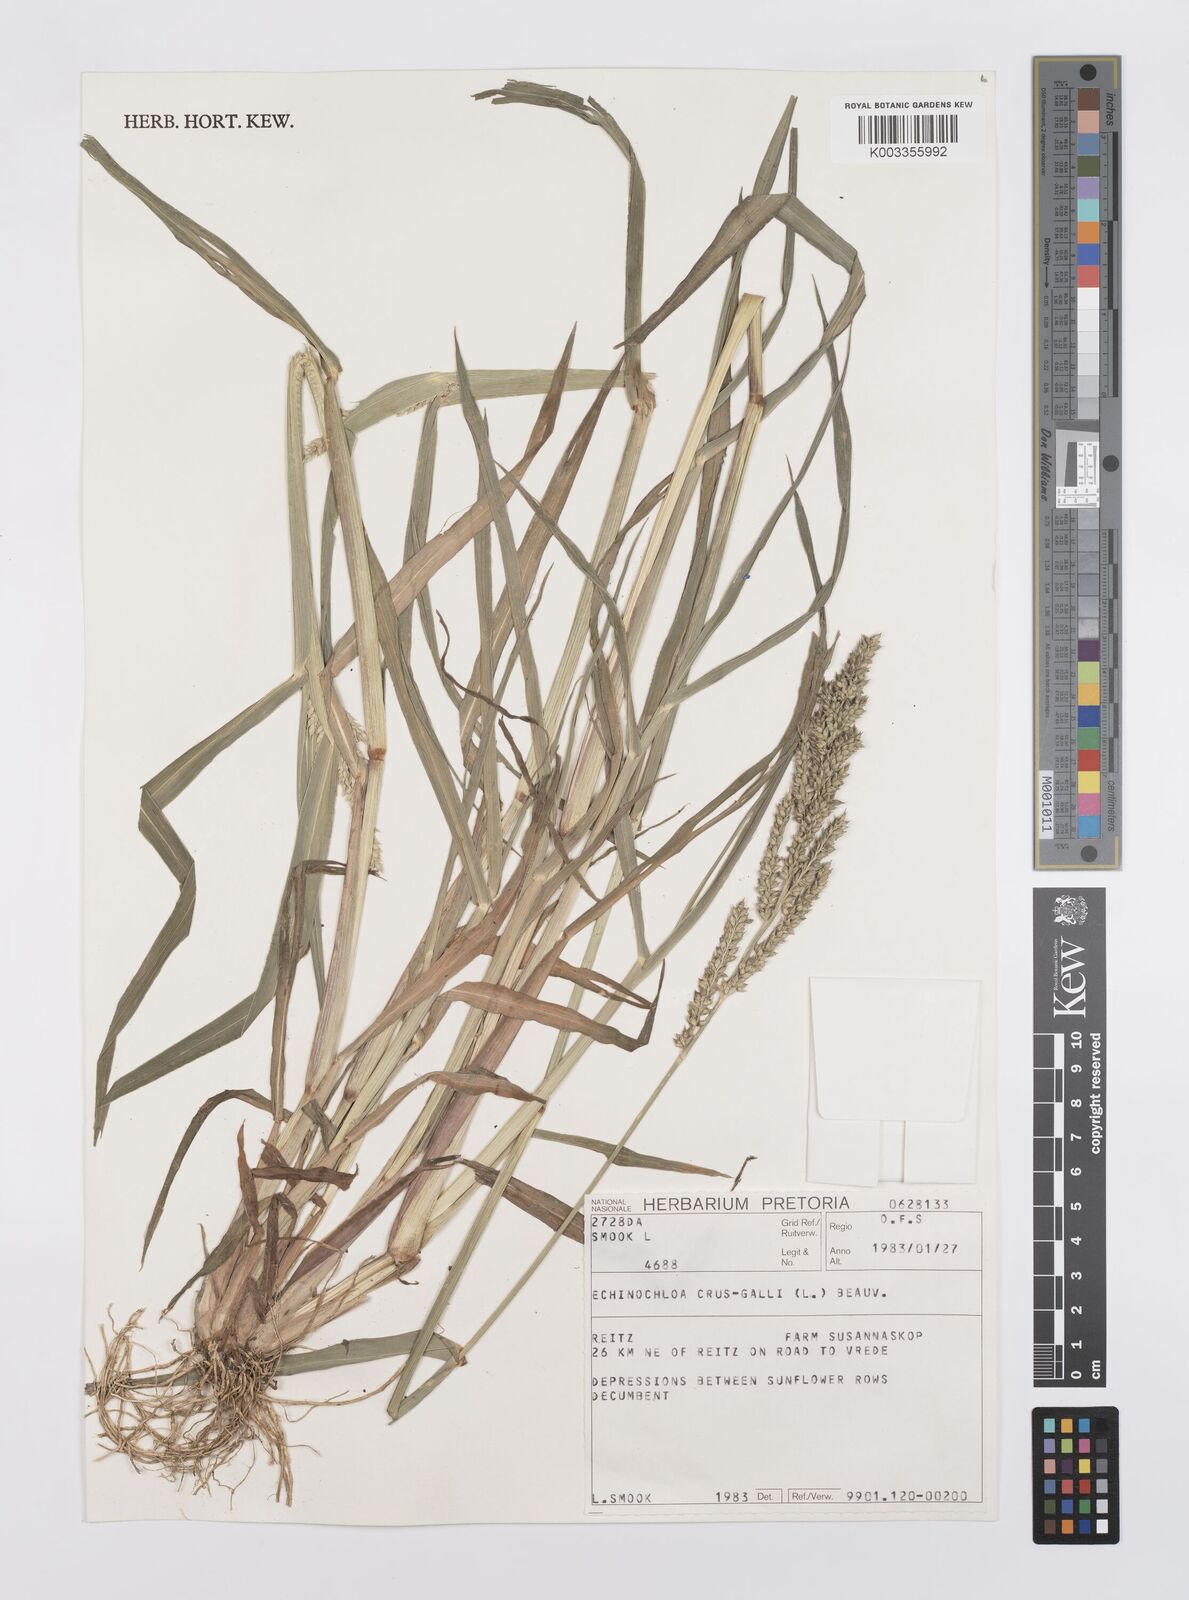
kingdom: Plantae
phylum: Tracheophyta
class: Liliopsida
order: Poales
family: Poaceae
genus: Echinochloa
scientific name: Echinochloa crus-galli
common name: Cockspur
